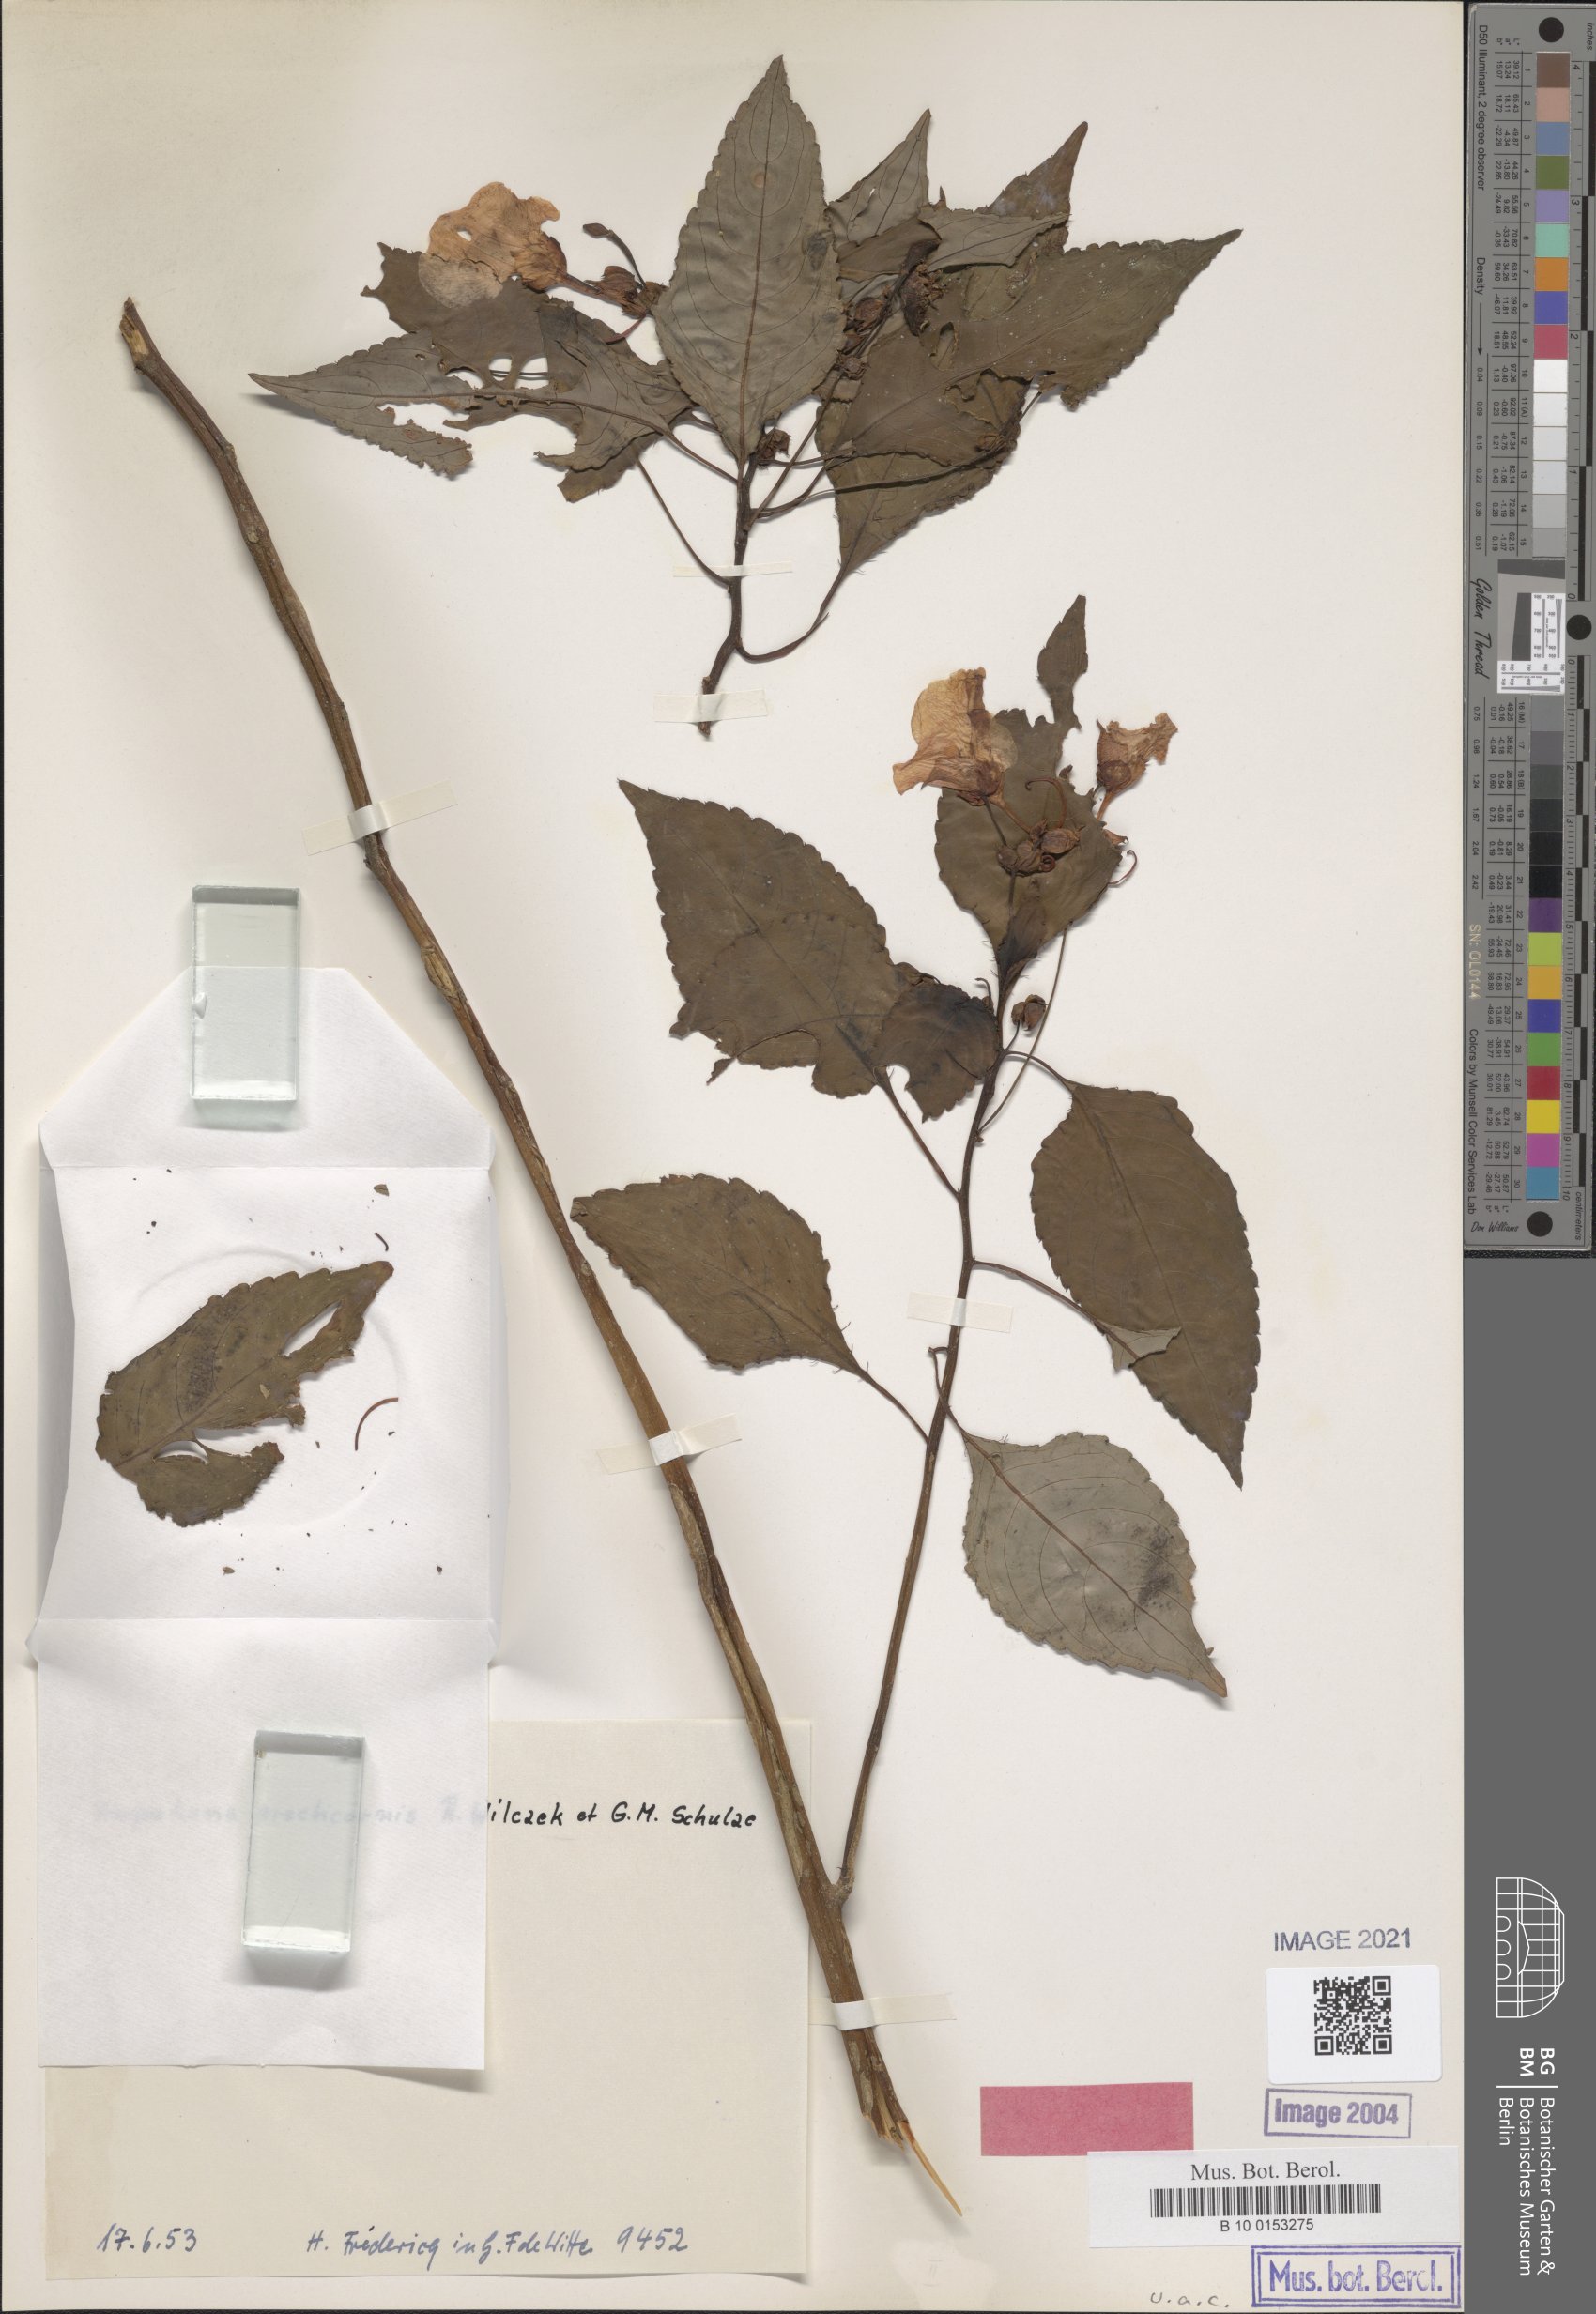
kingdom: Plantae
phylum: Tracheophyta
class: Magnoliopsida
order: Ericales
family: Balsaminaceae
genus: Impatiens
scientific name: Impatiens erecticornis
